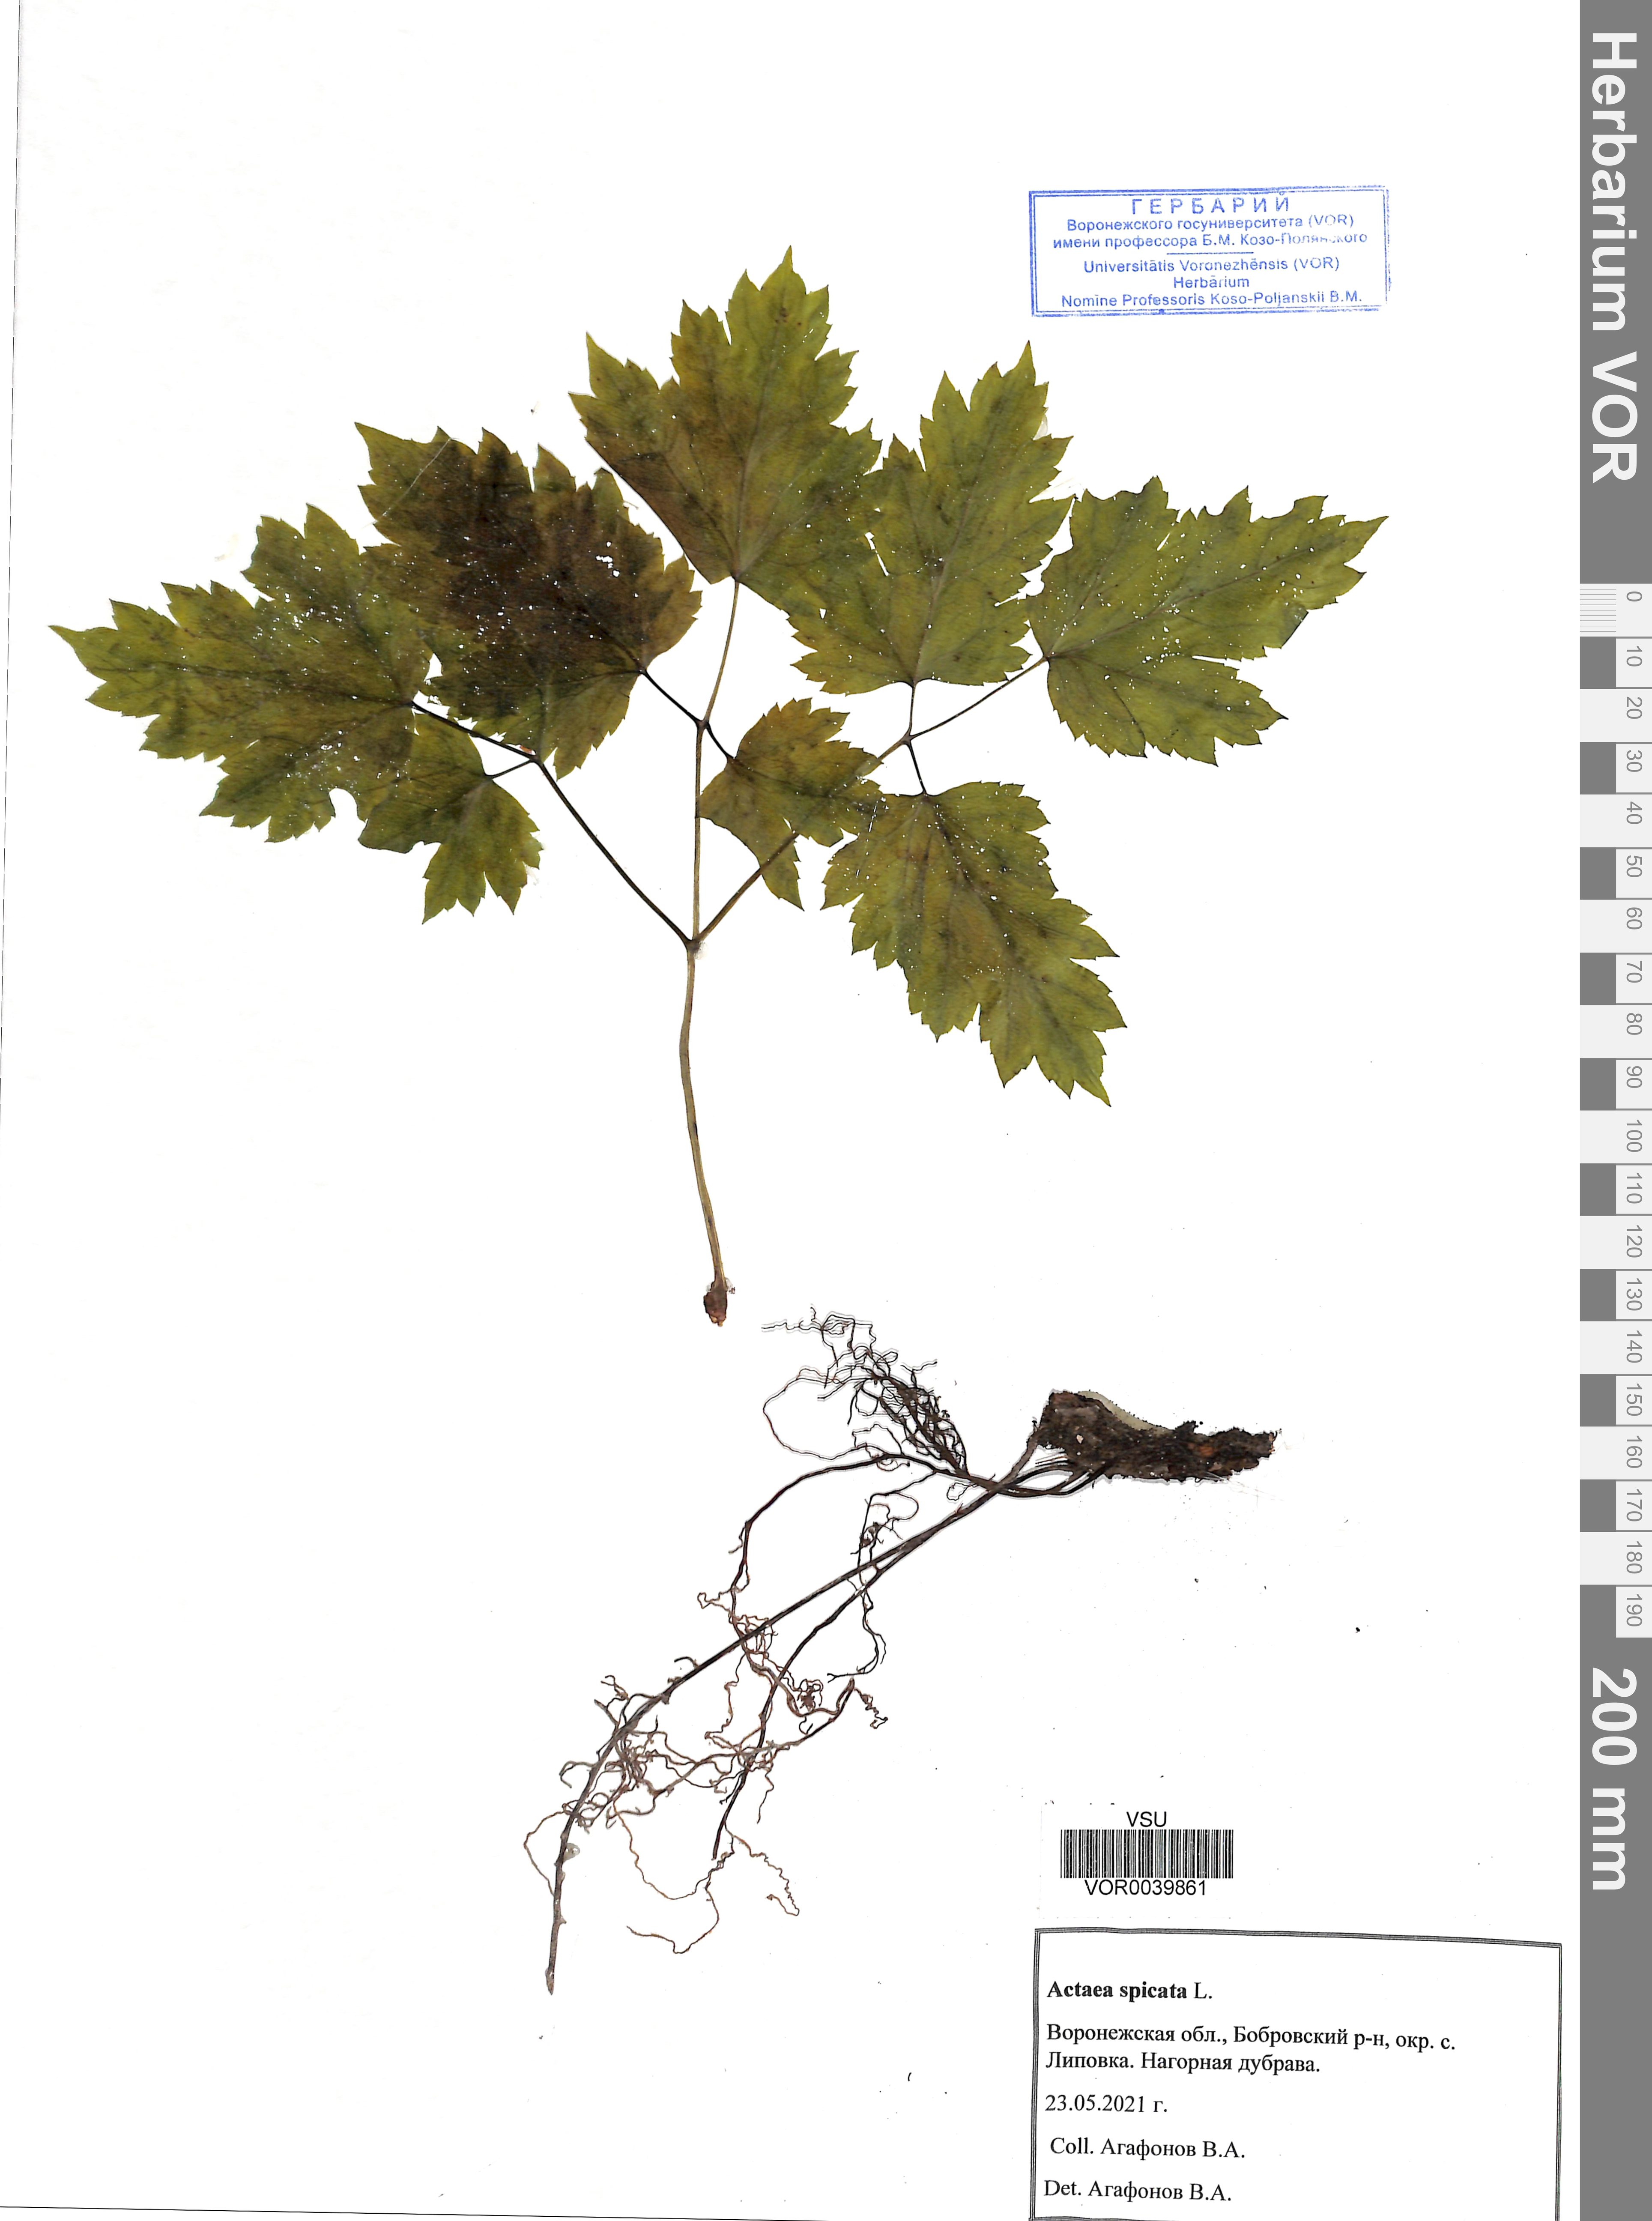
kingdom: Plantae
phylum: Tracheophyta
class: Magnoliopsida
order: Ranunculales
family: Ranunculaceae
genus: Actaea
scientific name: Actaea spicata
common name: Baneberry
